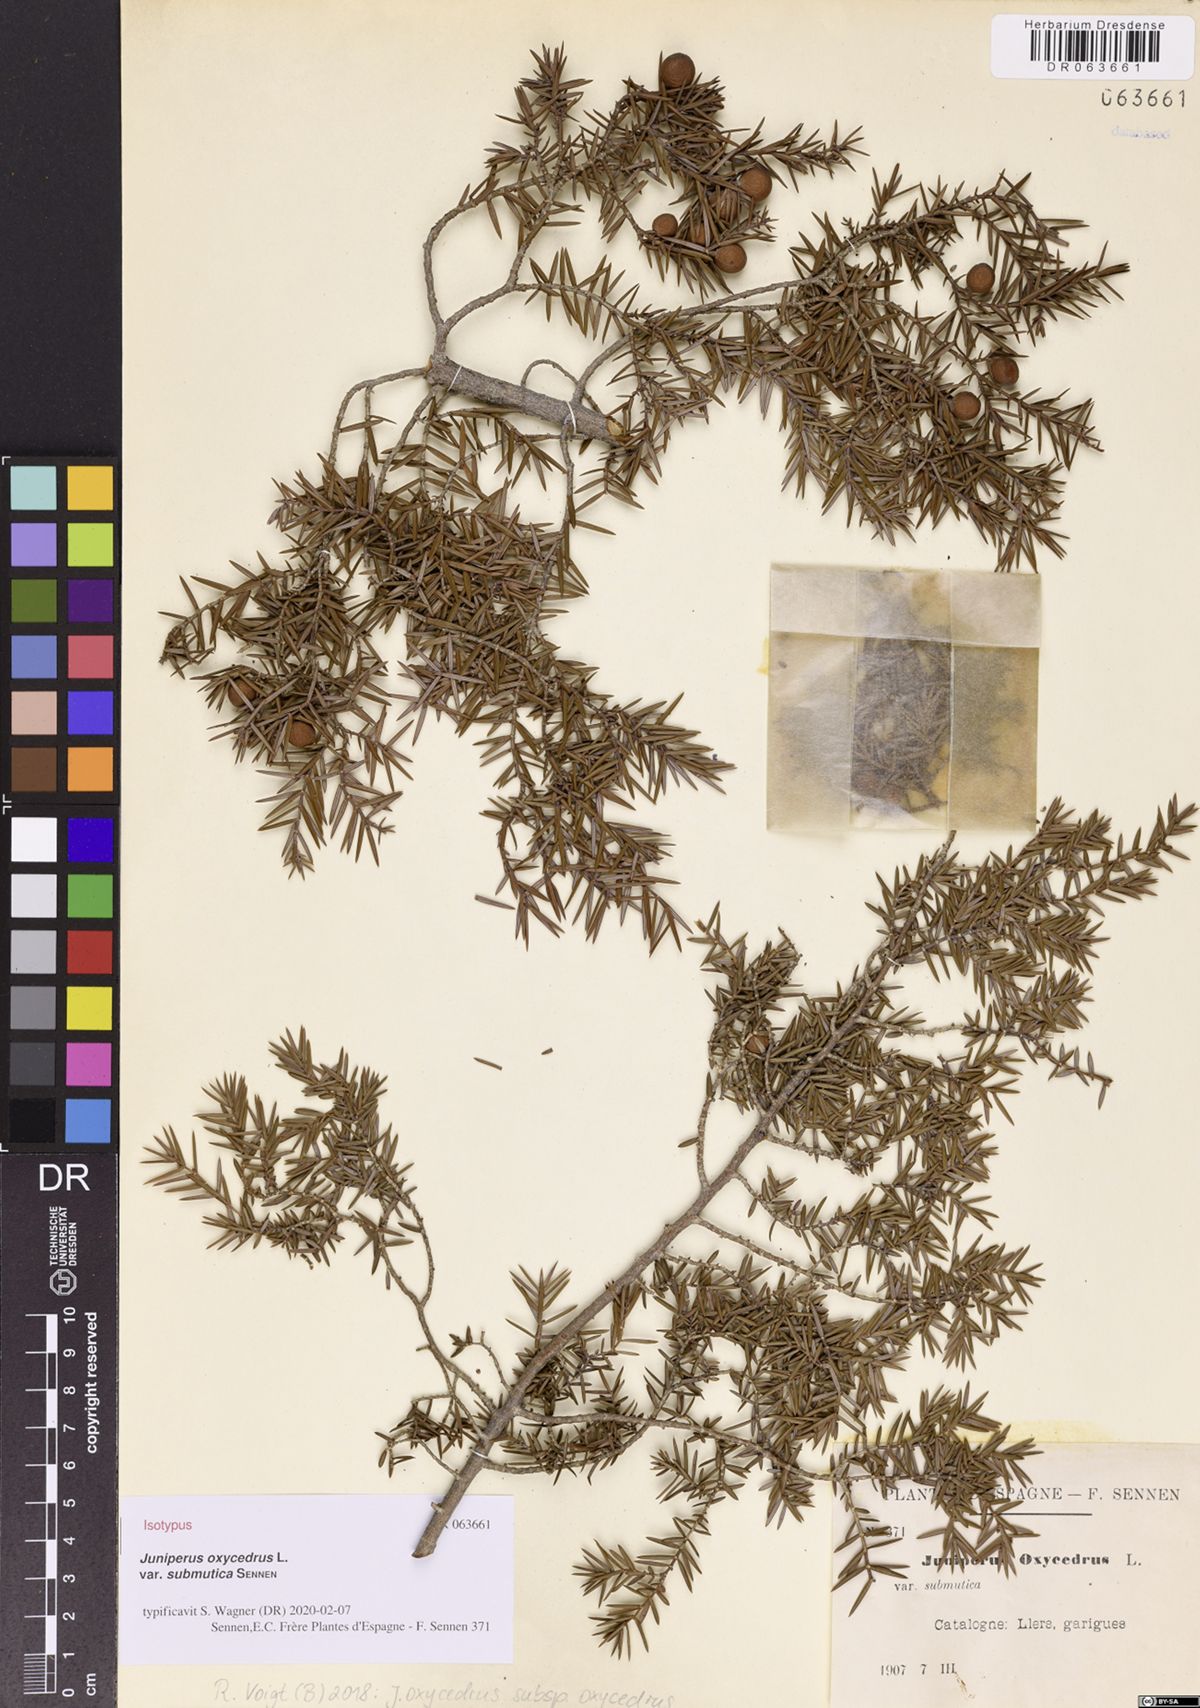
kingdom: Plantae
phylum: Tracheophyta
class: Pinopsida
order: Pinales
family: Cupressaceae
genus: Juniperus
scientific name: Juniperus oxycedrus
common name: Prickly juniper
